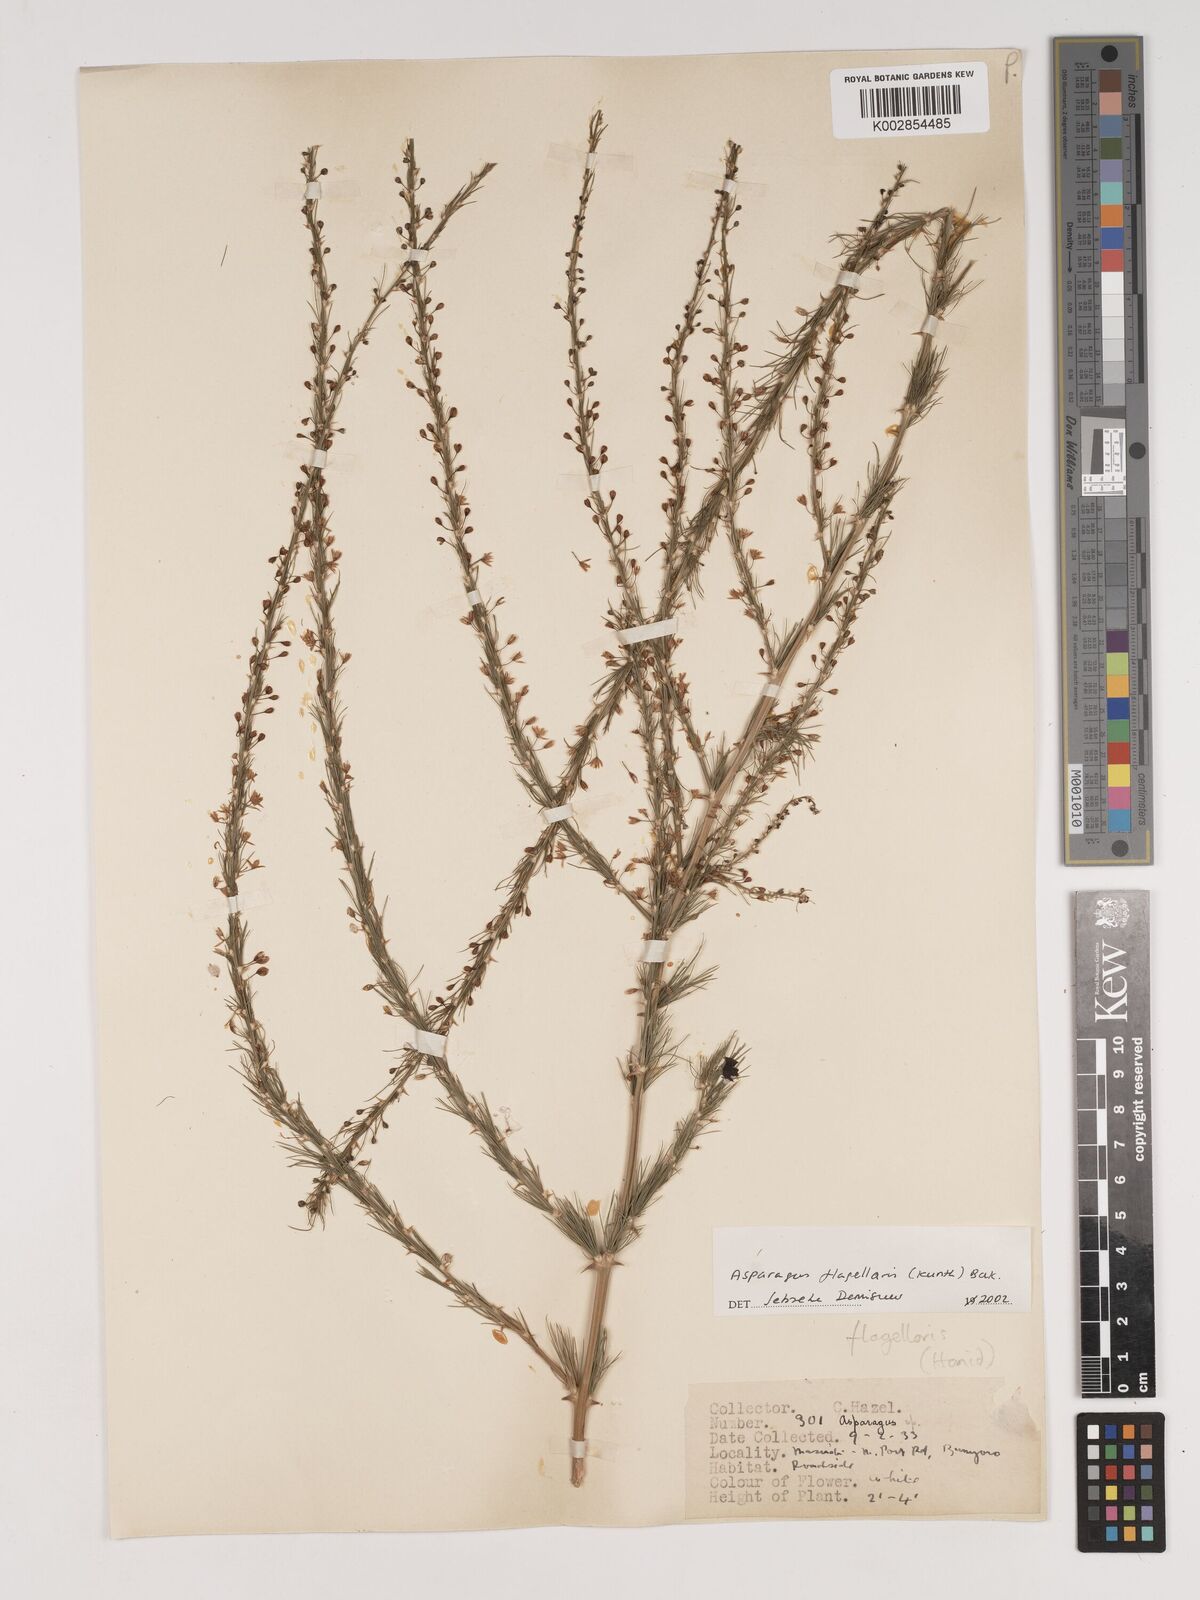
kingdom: Plantae
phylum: Tracheophyta
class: Liliopsida
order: Asparagales
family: Asparagaceae
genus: Asparagus
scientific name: Asparagus flagellaris
